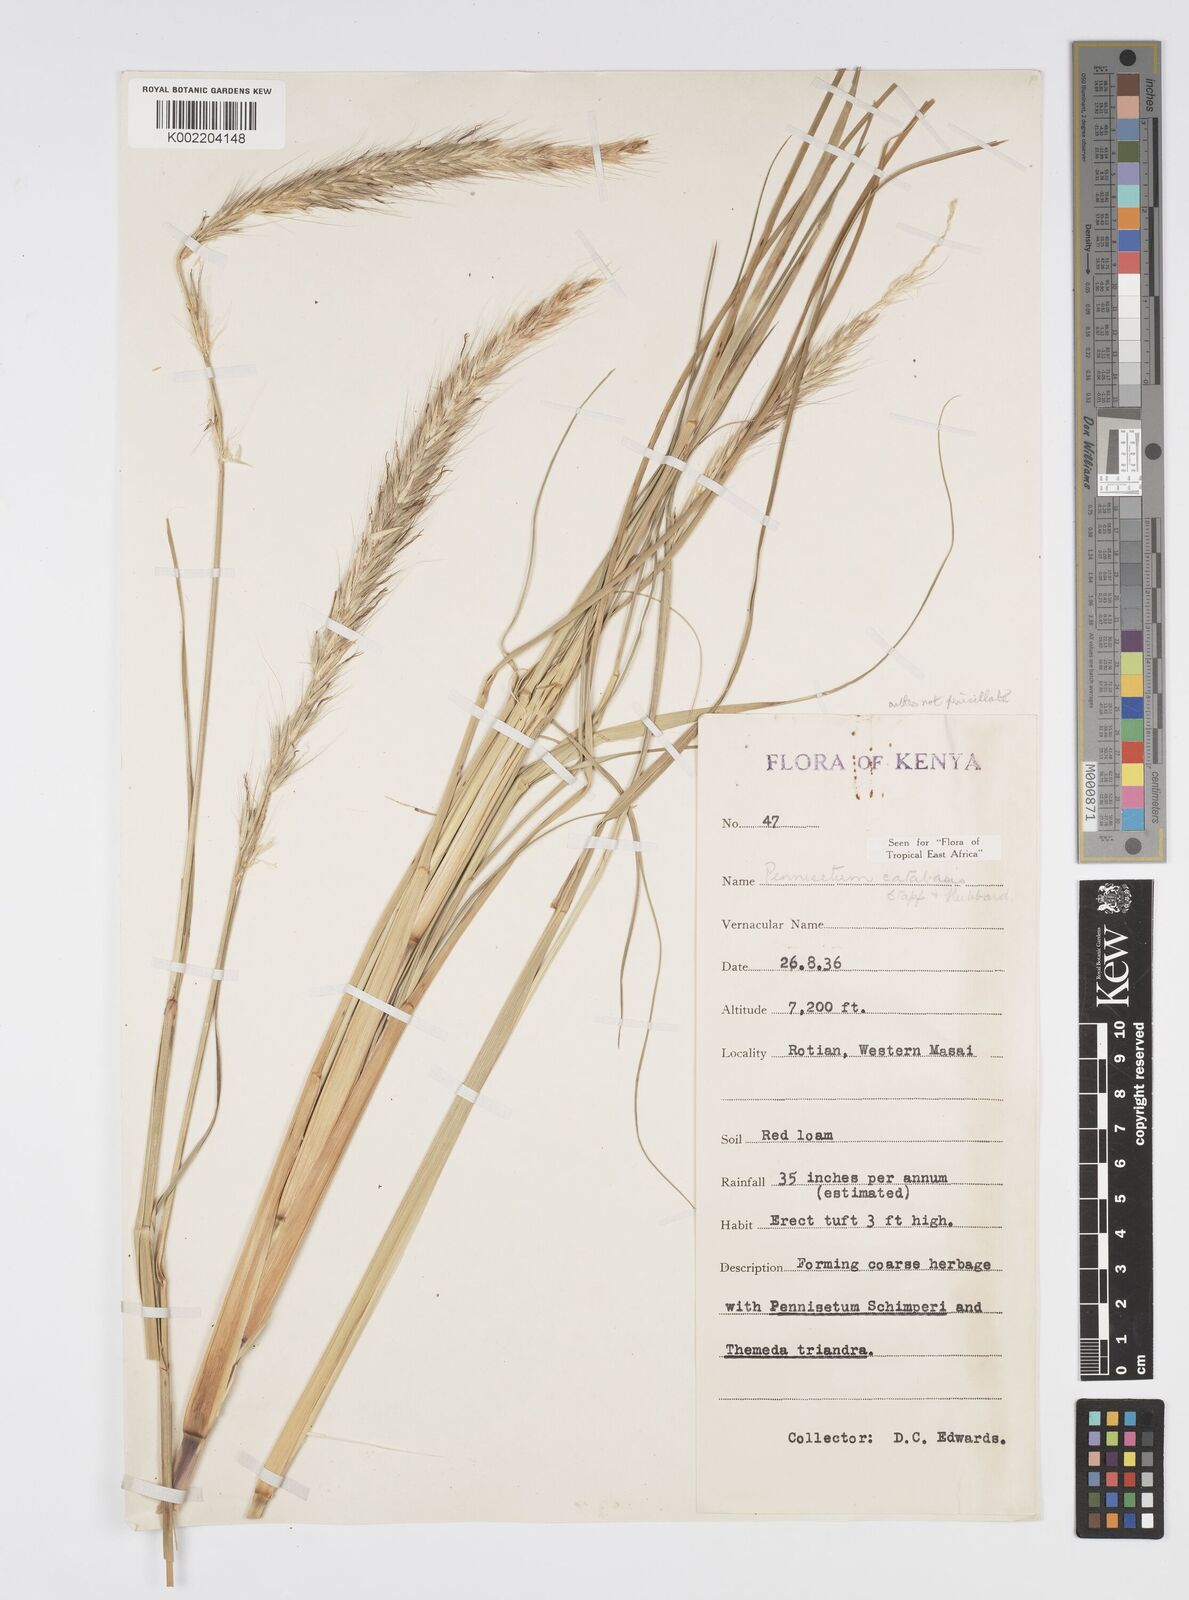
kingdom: Plantae
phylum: Tracheophyta
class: Liliopsida
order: Poales
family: Poaceae
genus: Cenchrus
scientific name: Cenchrus Pennisetum spec
